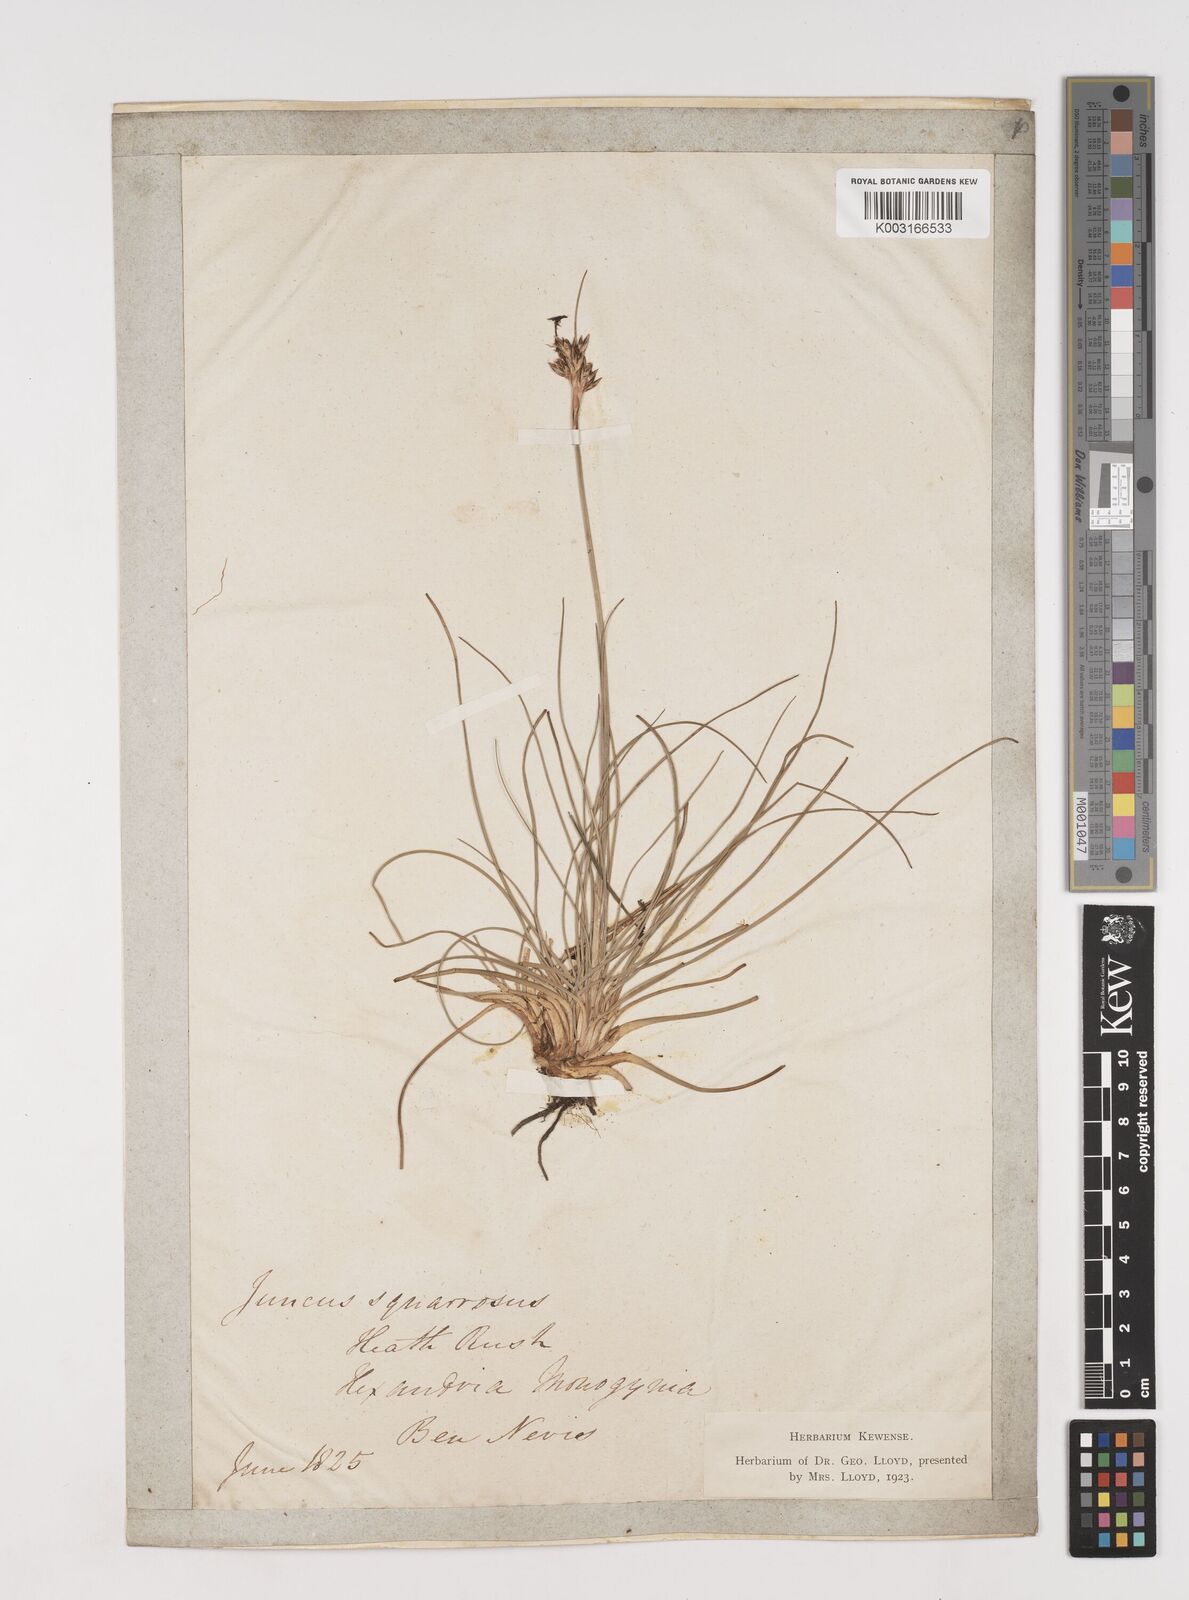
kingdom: Plantae
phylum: Tracheophyta
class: Liliopsida
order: Poales
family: Juncaceae
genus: Juncus
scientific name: Juncus squarrosus
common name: Heath rush
